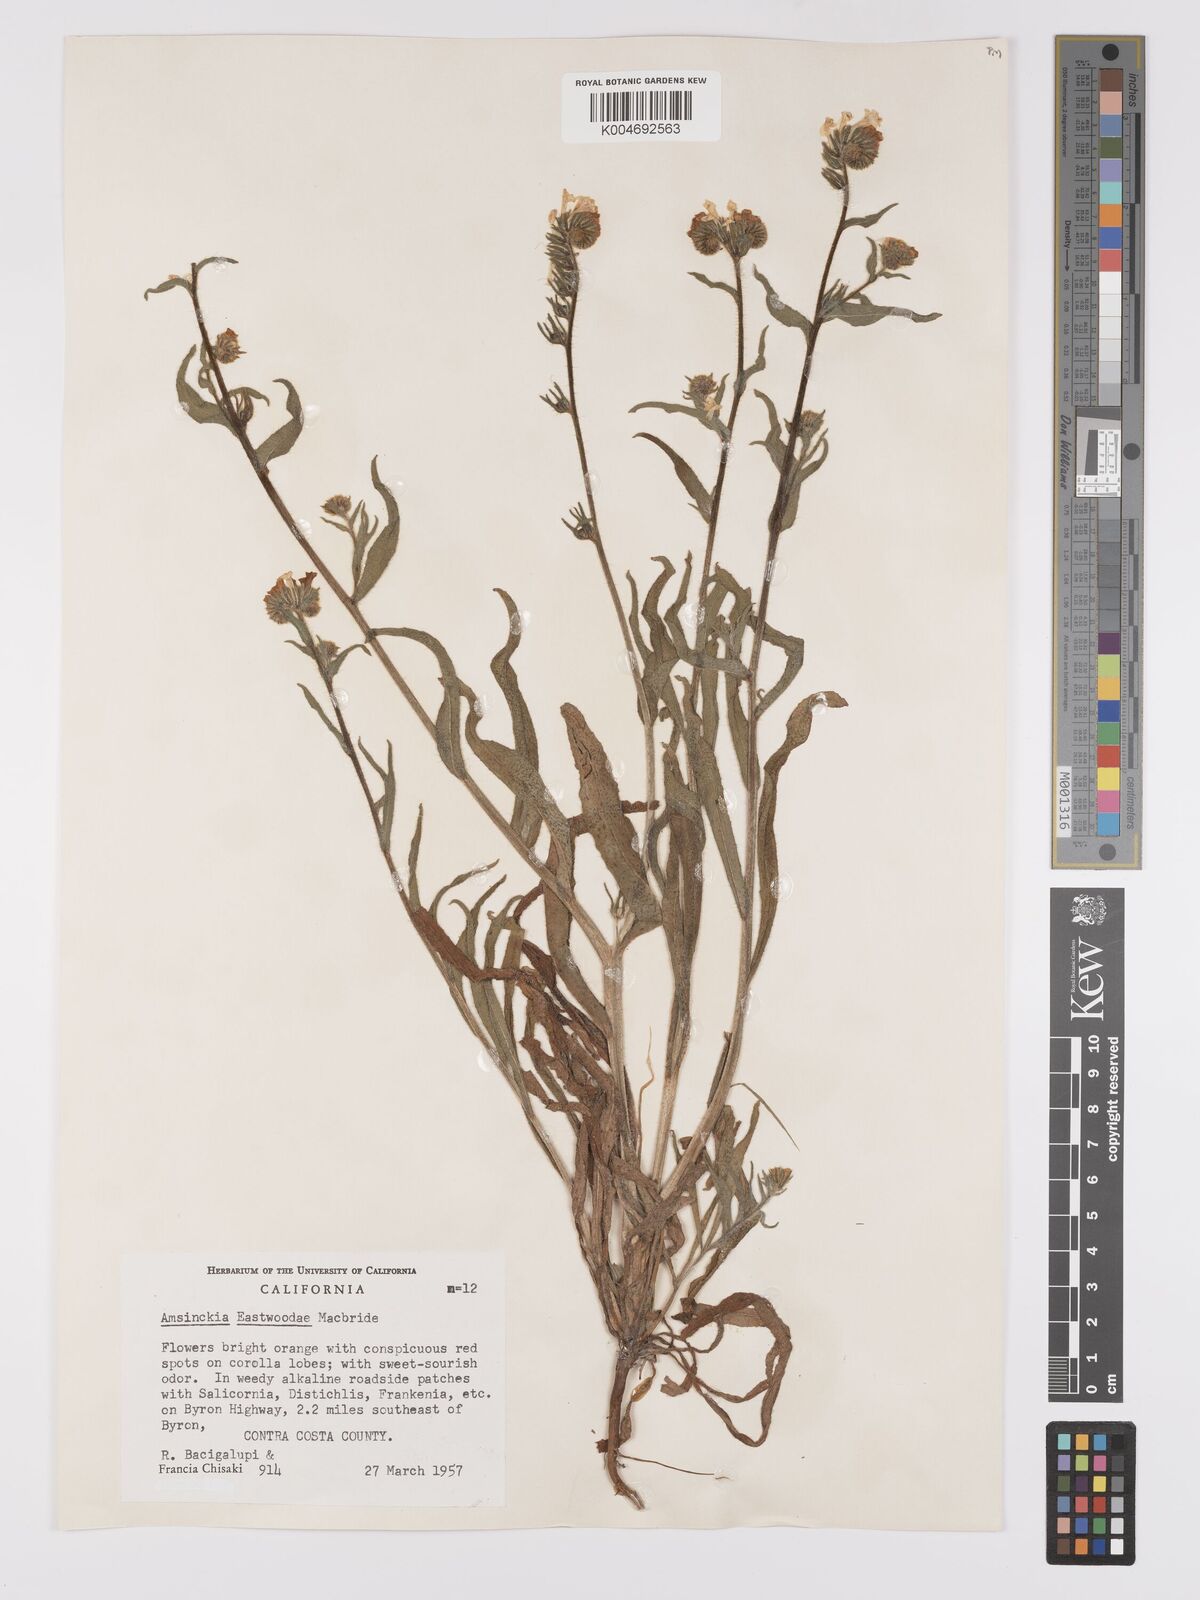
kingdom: Plantae
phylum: Tracheophyta
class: Magnoliopsida
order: Boraginales
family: Boraginaceae
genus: Amsinckia
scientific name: Amsinckia eastwoodiae
